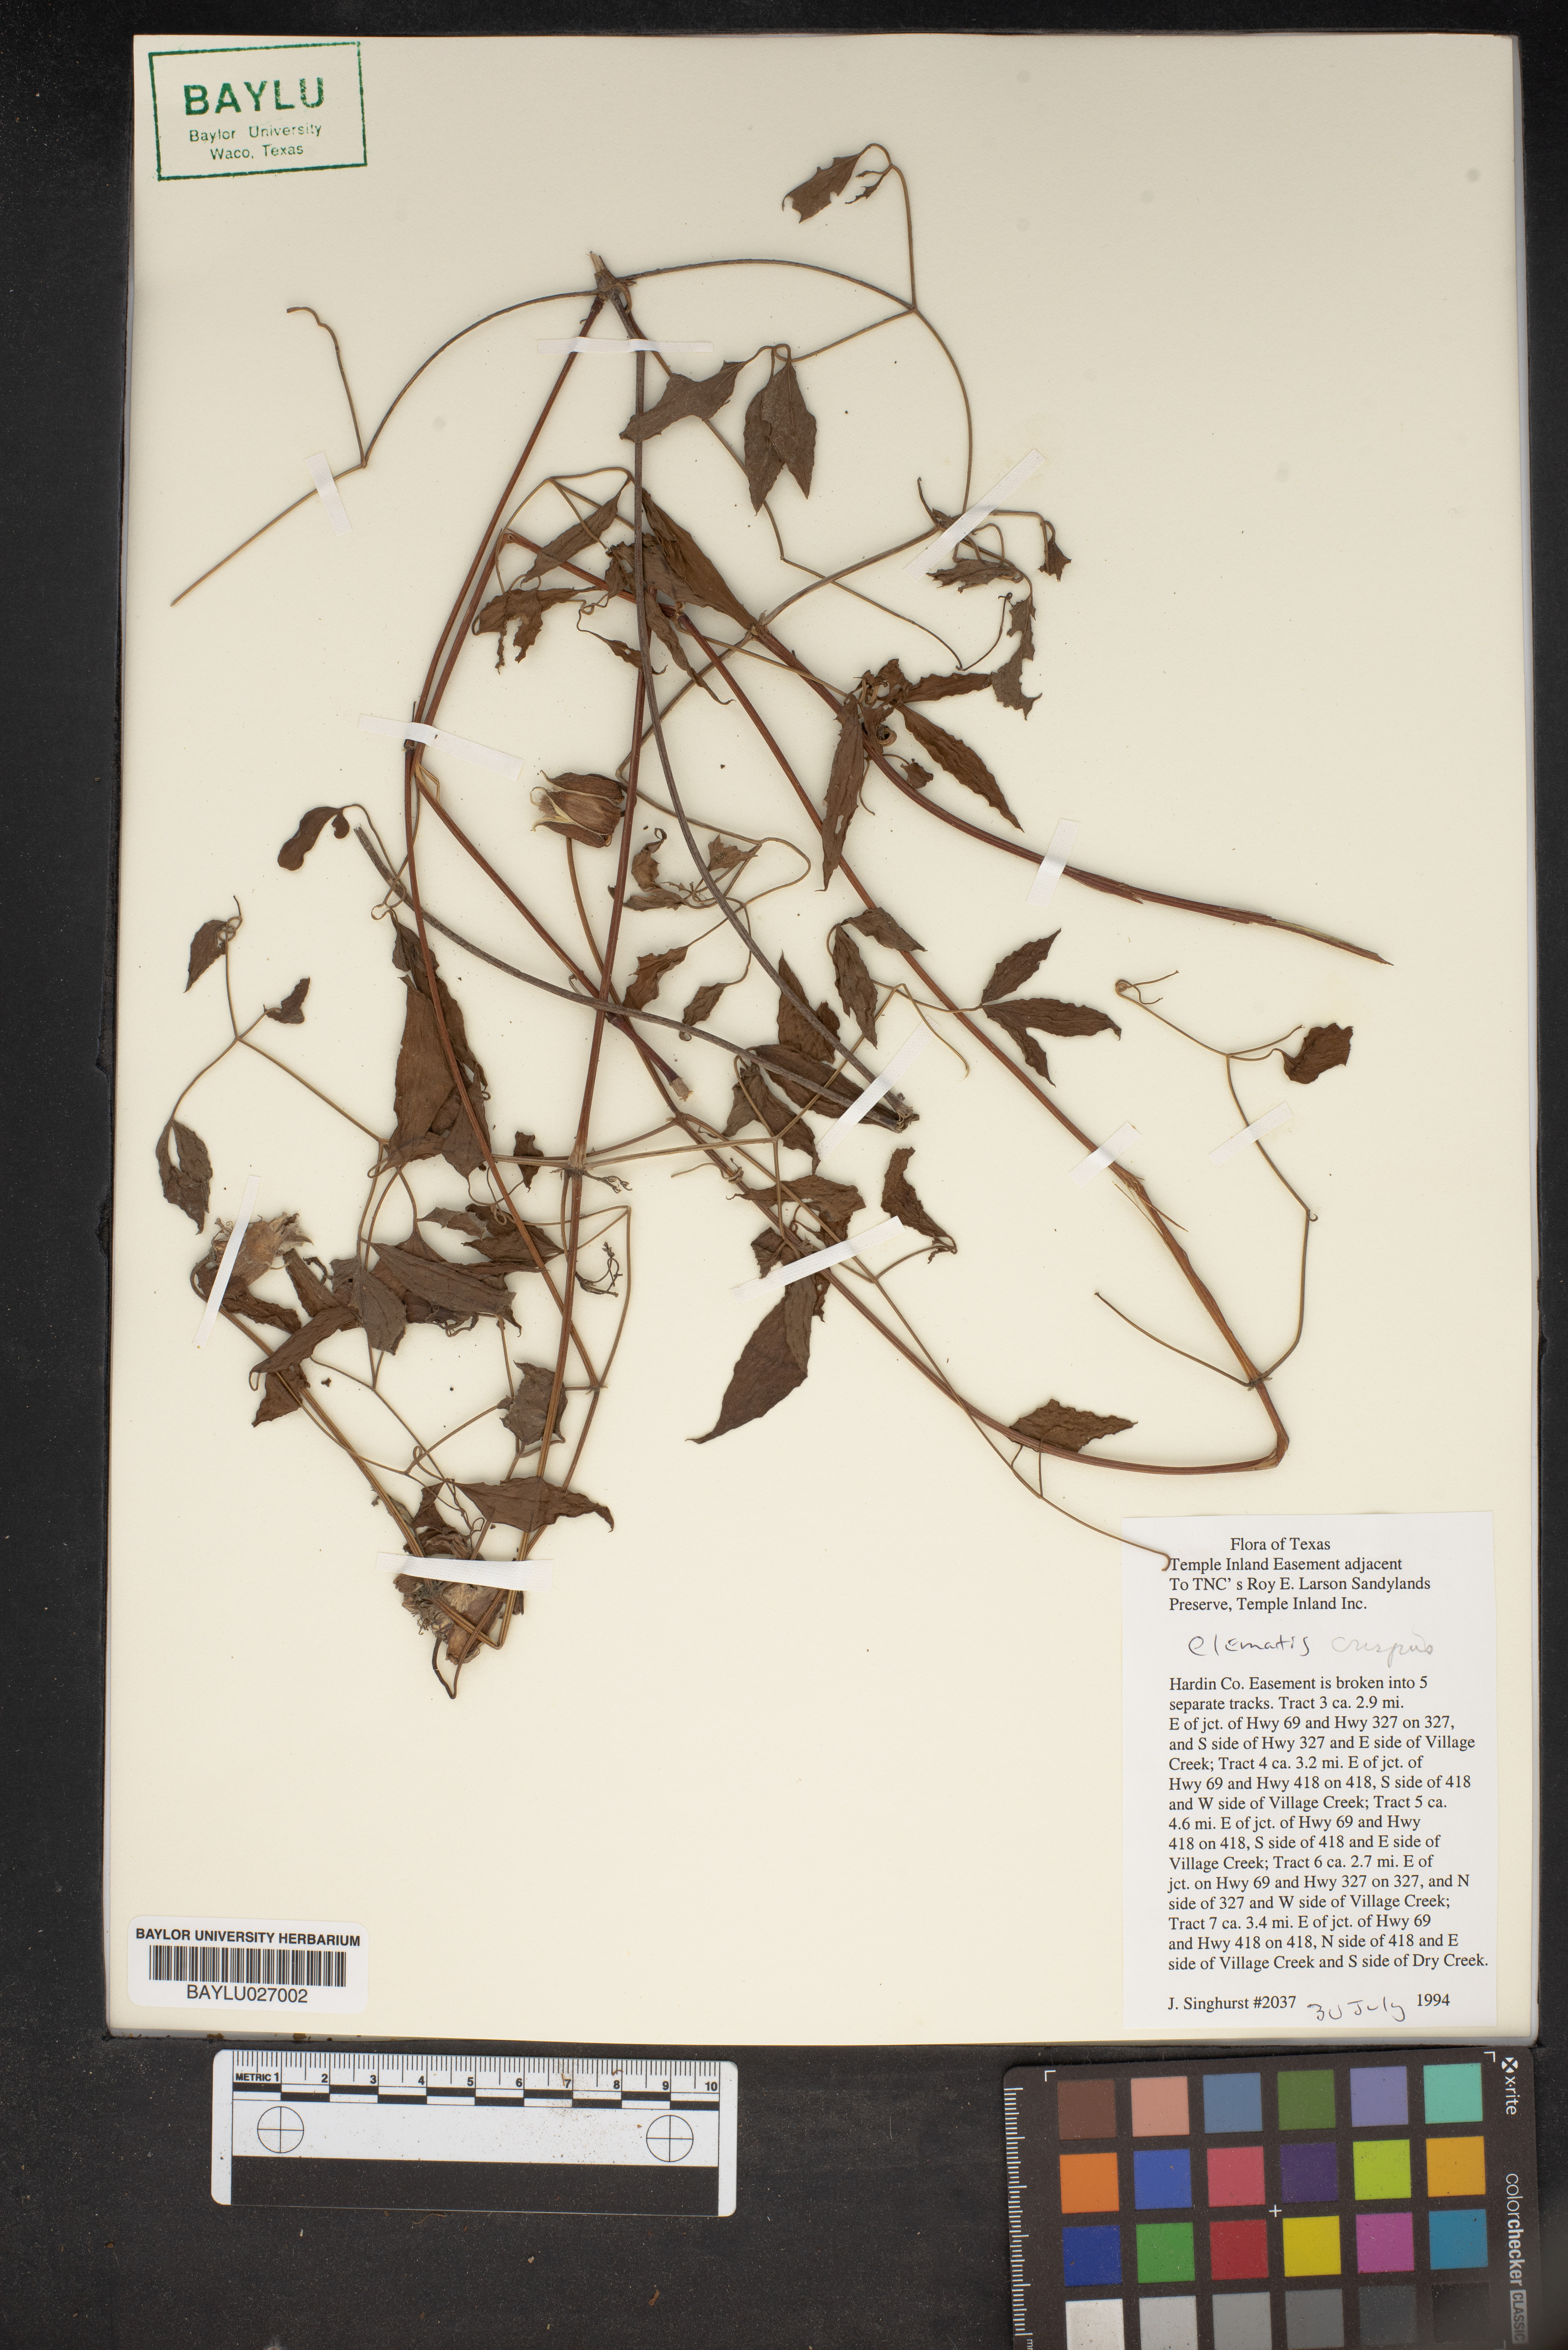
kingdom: Plantae
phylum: Tracheophyta
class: Magnoliopsida
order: Ranunculales
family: Ranunculaceae
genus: Clematis
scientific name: Clematis crispa
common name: Curly clematis
